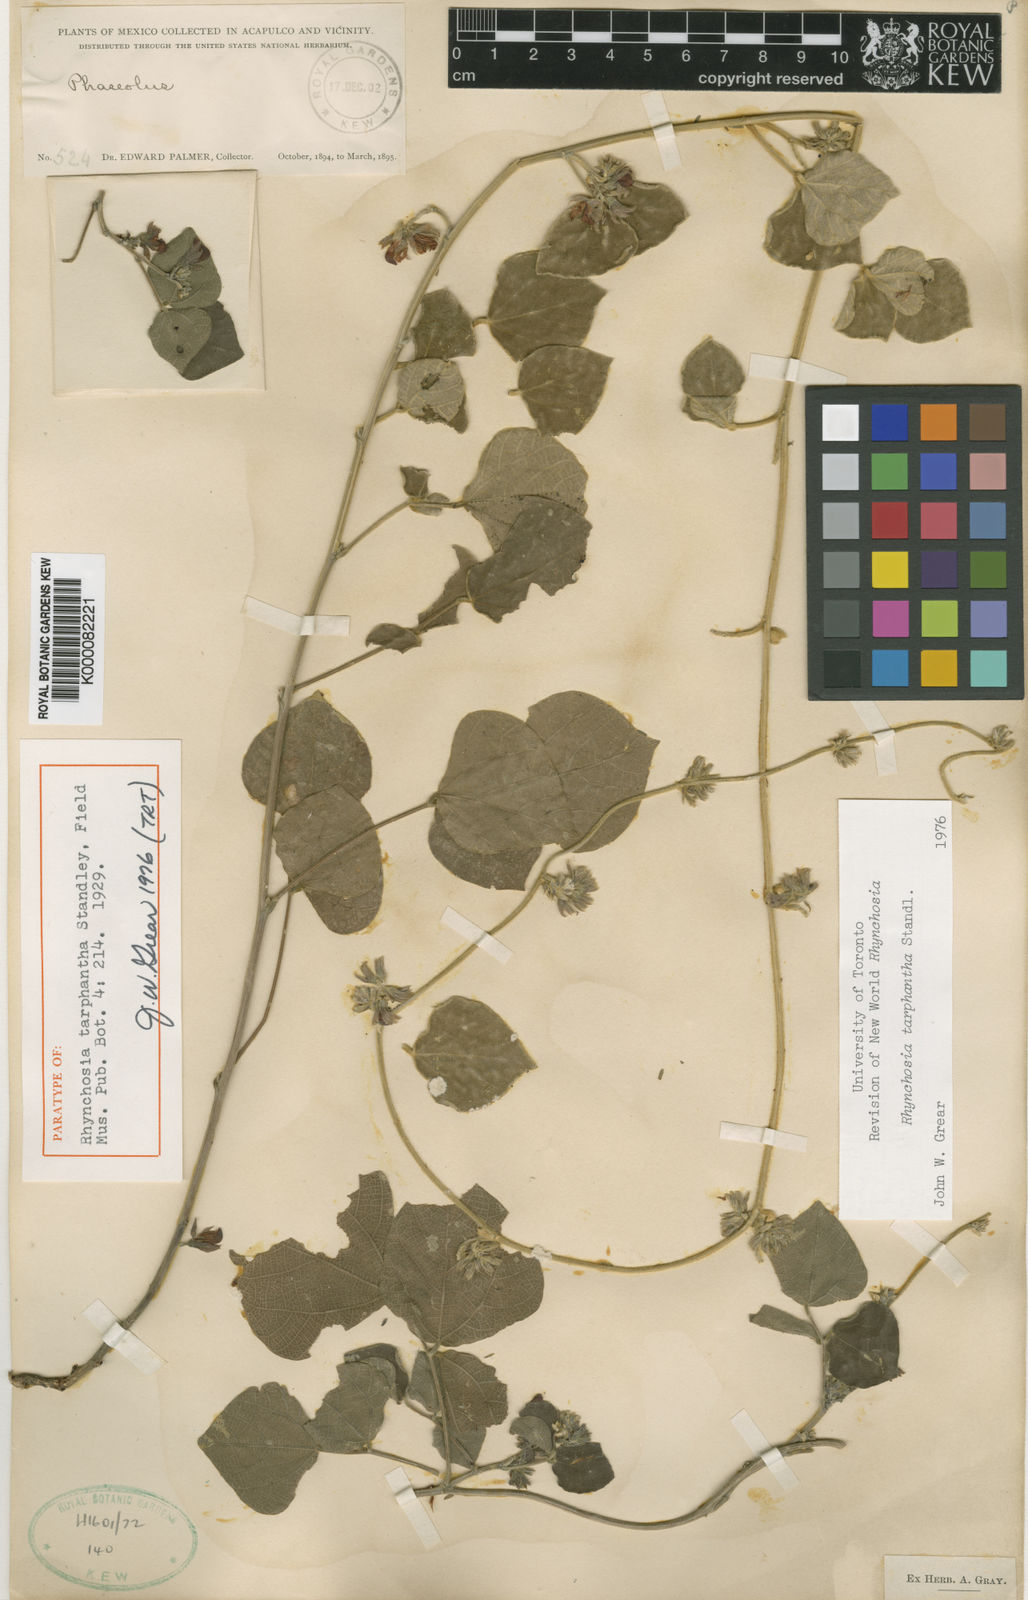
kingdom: Plantae
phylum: Tracheophyta
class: Magnoliopsida
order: Fabales
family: Fabaceae
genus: Rhynchosia
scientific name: Rhynchosia tarphantha
